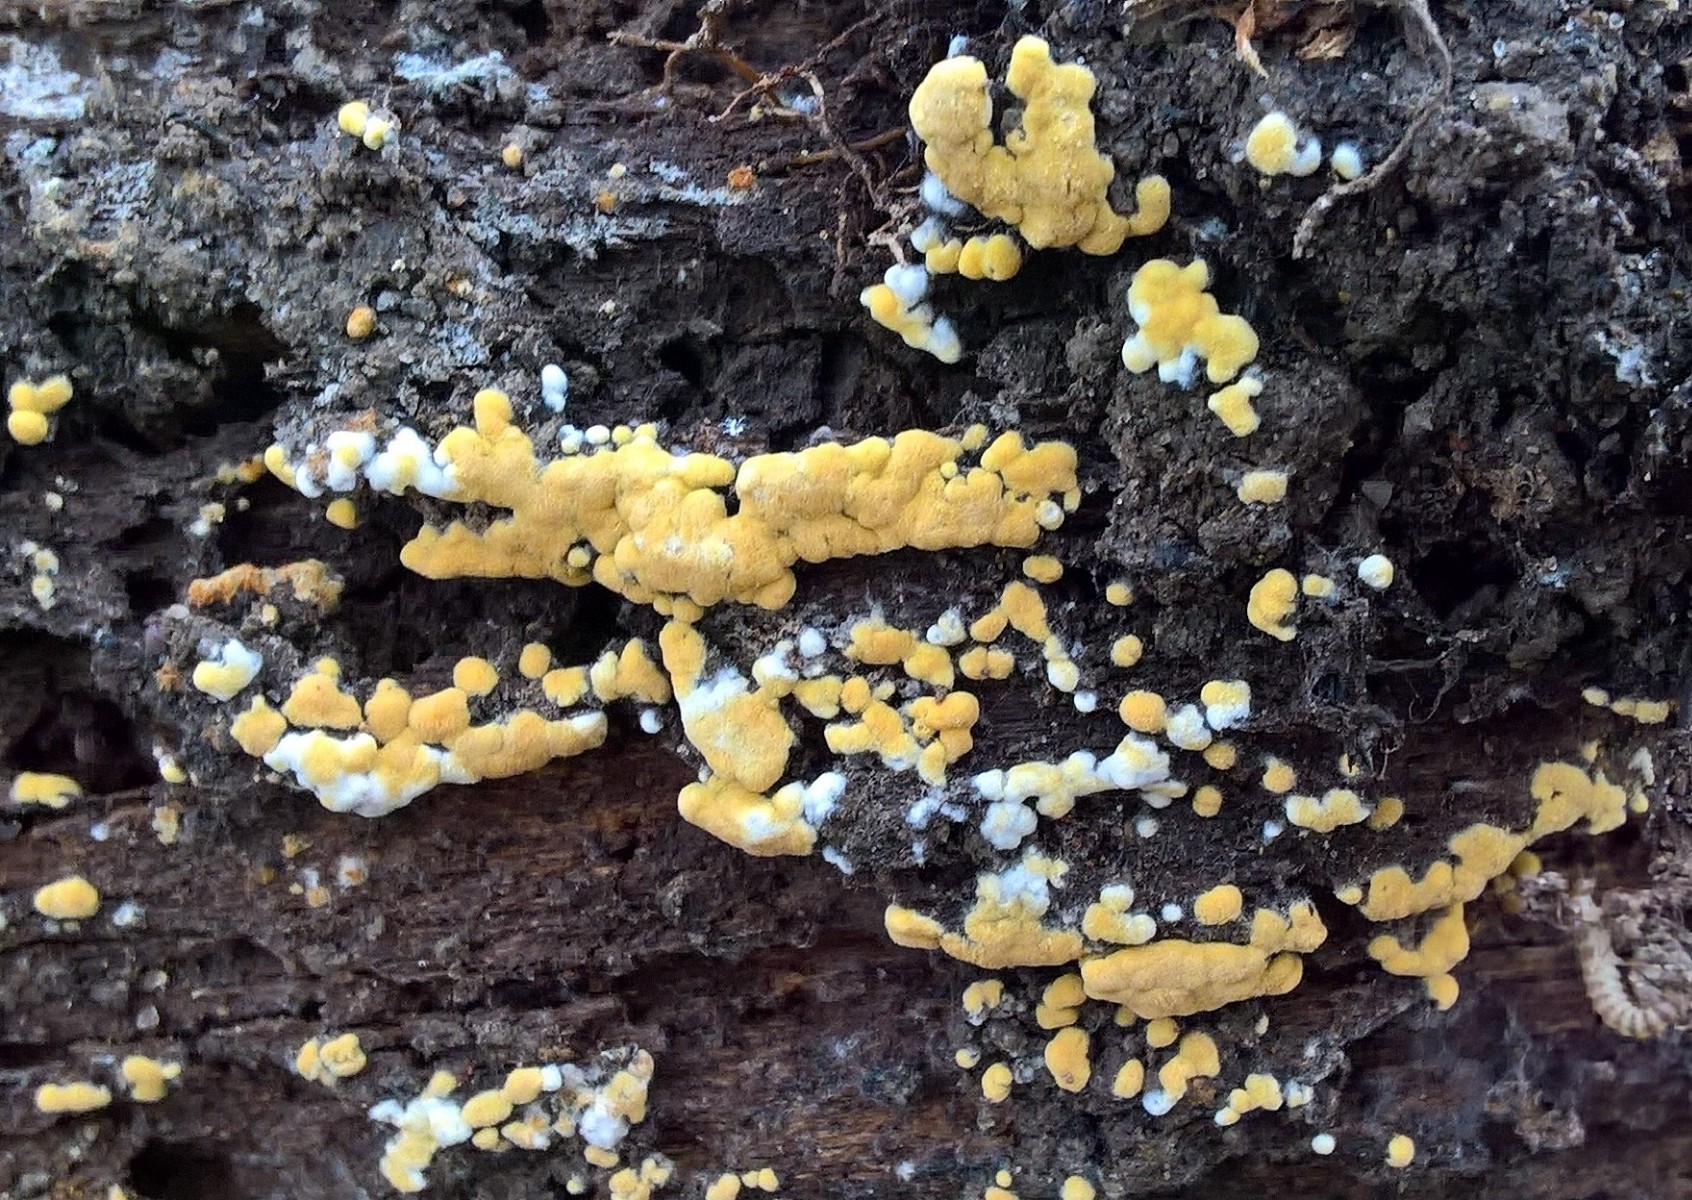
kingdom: Fungi
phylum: Basidiomycota
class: Agaricomycetes
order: Cantharellales
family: Botryobasidiaceae
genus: Botryobasidium
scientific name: Botryobasidium aureum
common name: gylden spindhinde
